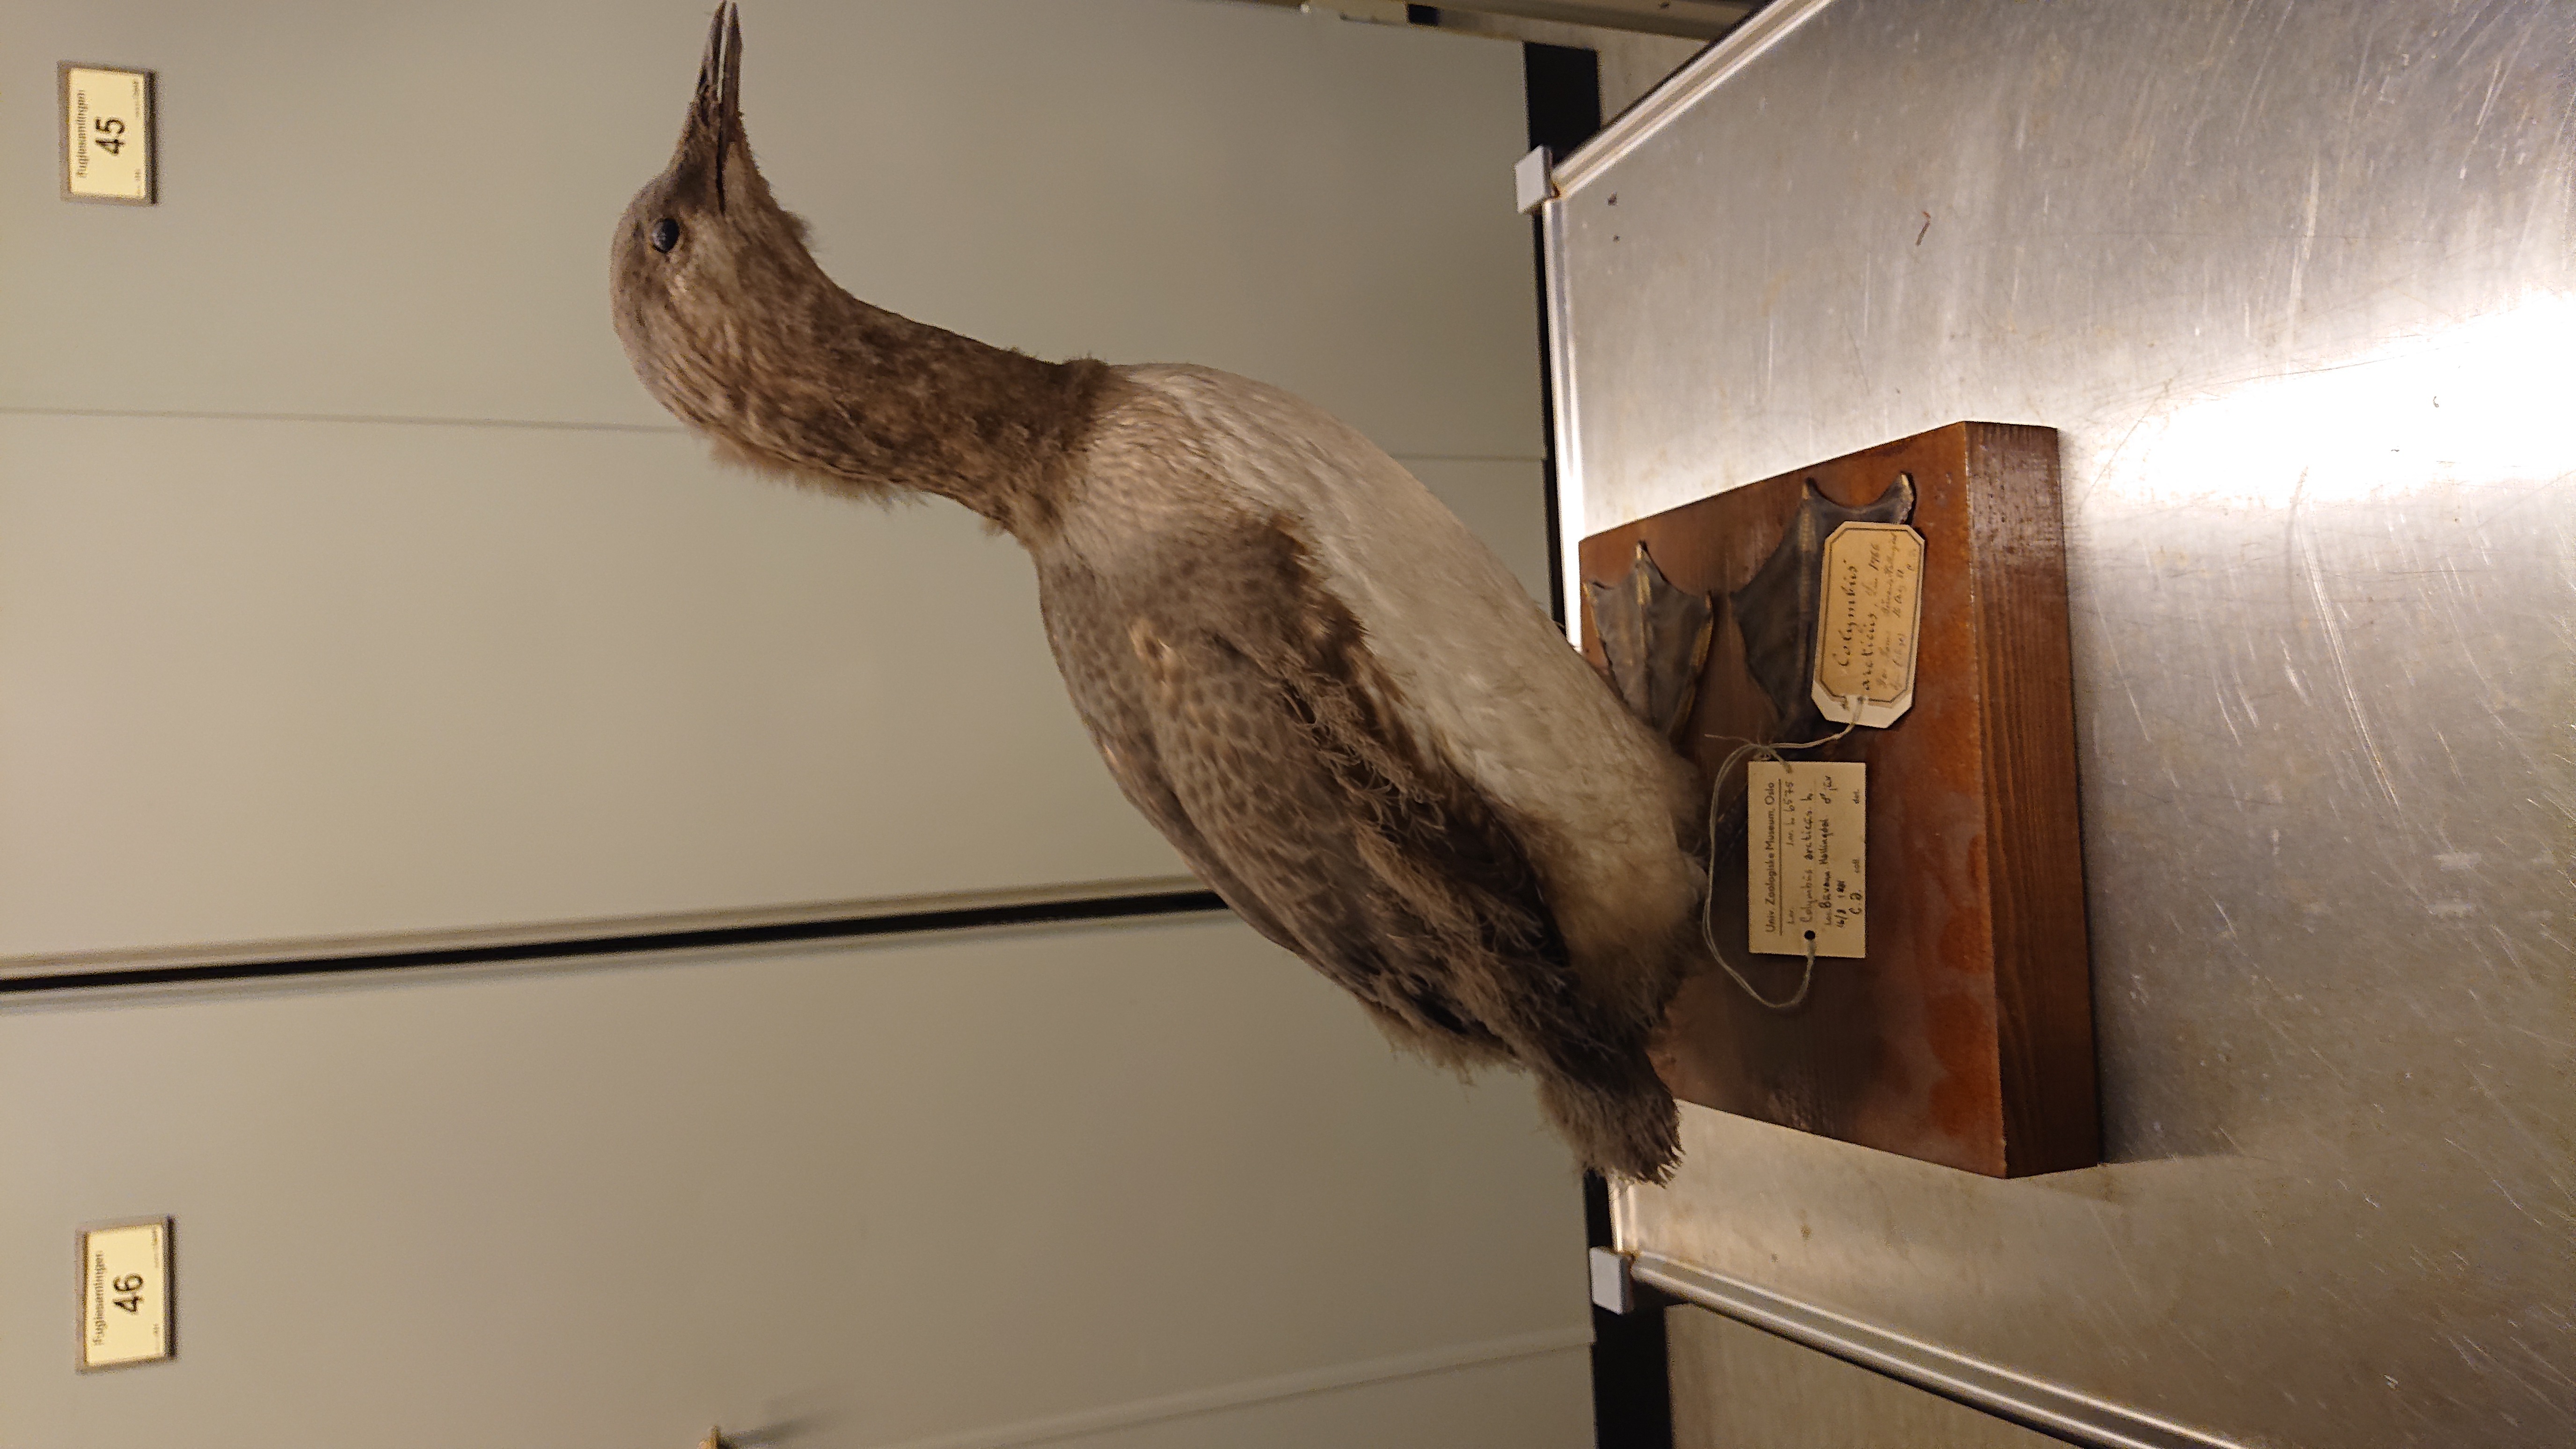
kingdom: Animalia
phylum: Chordata
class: Aves
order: Gaviiformes
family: Gaviidae
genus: Gavia
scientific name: Gavia arctica
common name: Black-throated loon
